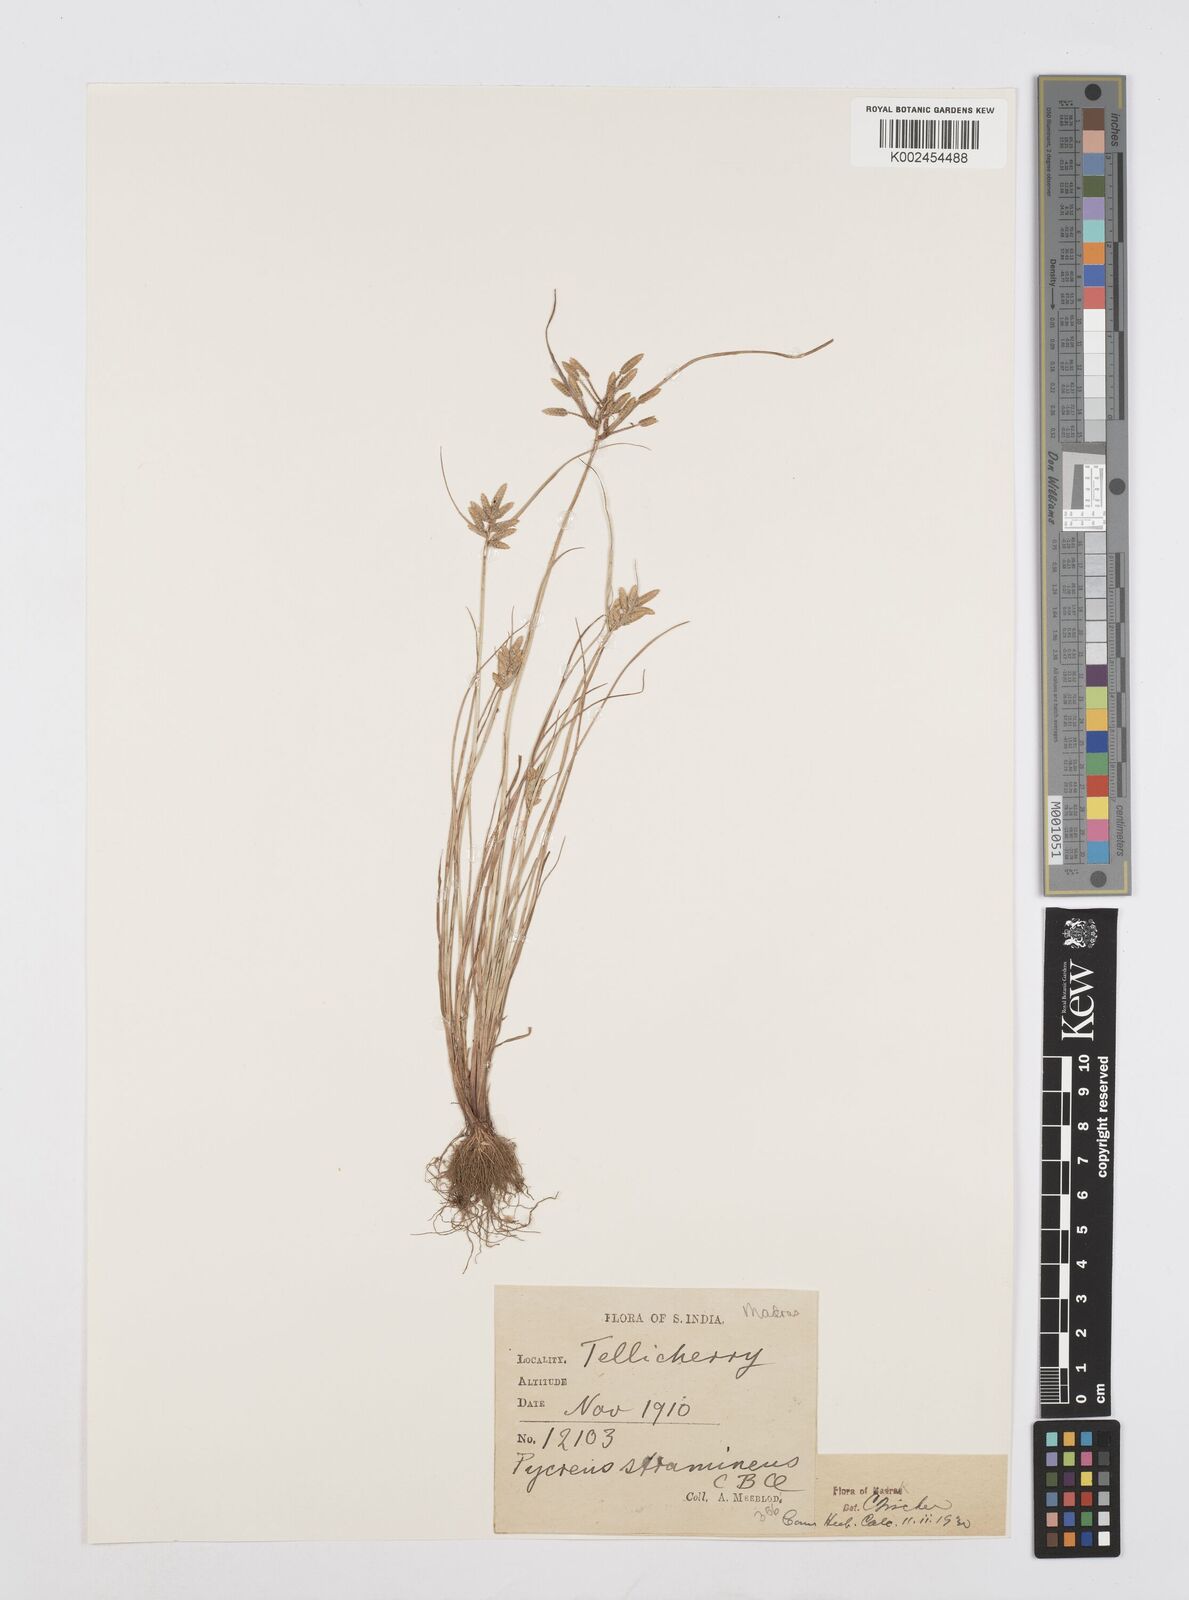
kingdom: Plantae
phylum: Tracheophyta
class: Liliopsida
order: Poales
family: Cyperaceae
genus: Cyperus
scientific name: Cyperus substramineus
